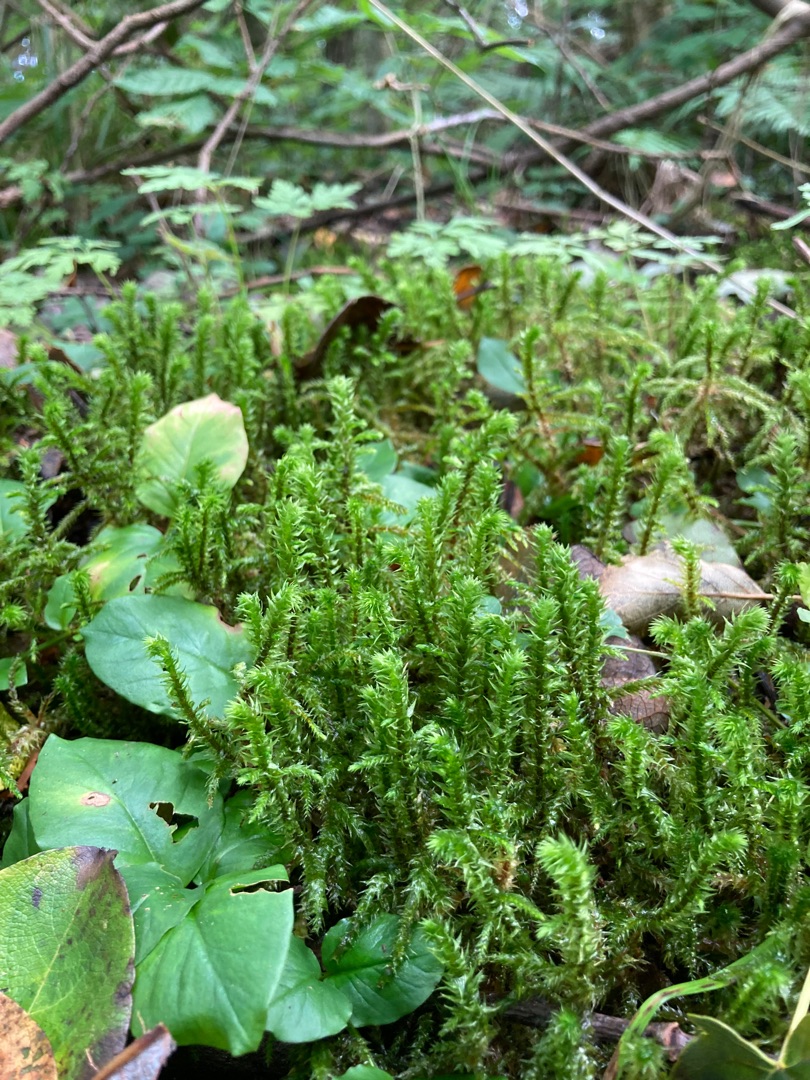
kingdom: Plantae
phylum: Bryophyta
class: Bryopsida
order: Hypnales
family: Hylocomiaceae
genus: Hylocomiadelphus
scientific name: Hylocomiadelphus triquetrus
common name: Stor kransemos
